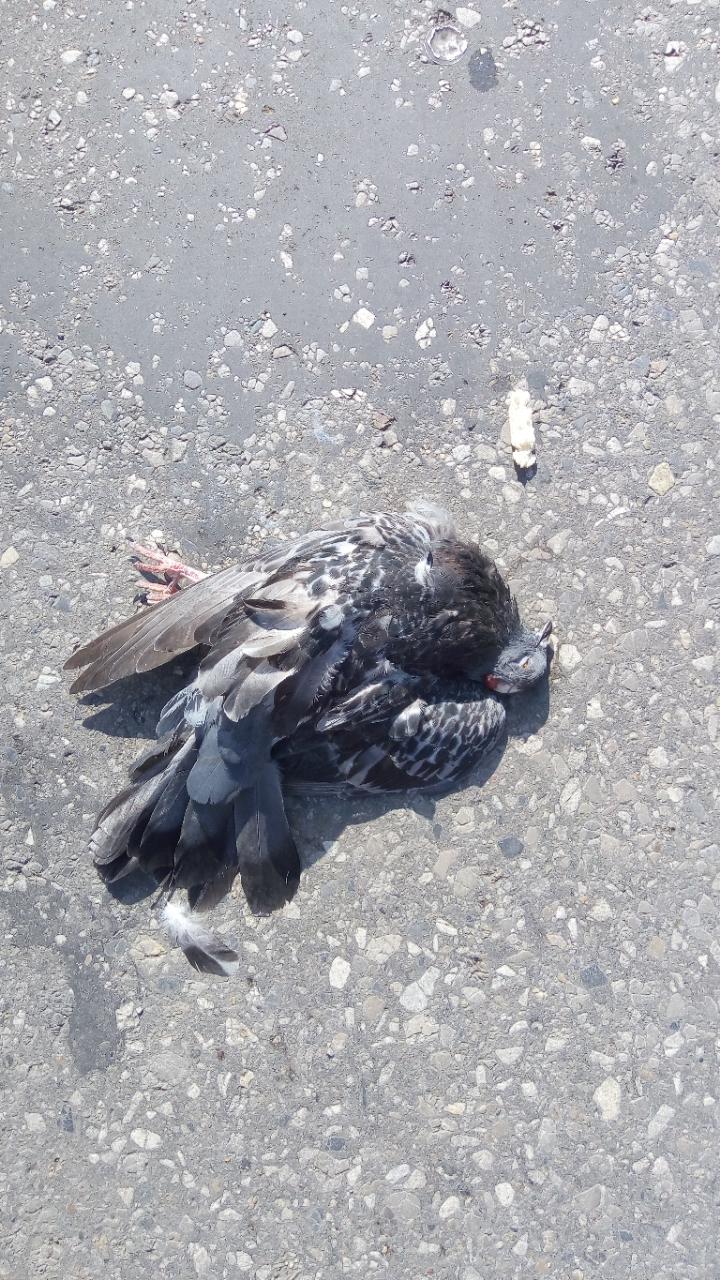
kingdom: Animalia
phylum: Chordata
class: Aves
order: Columbiformes
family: Columbidae
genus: Columba
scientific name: Columba livia
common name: Rock pigeon
